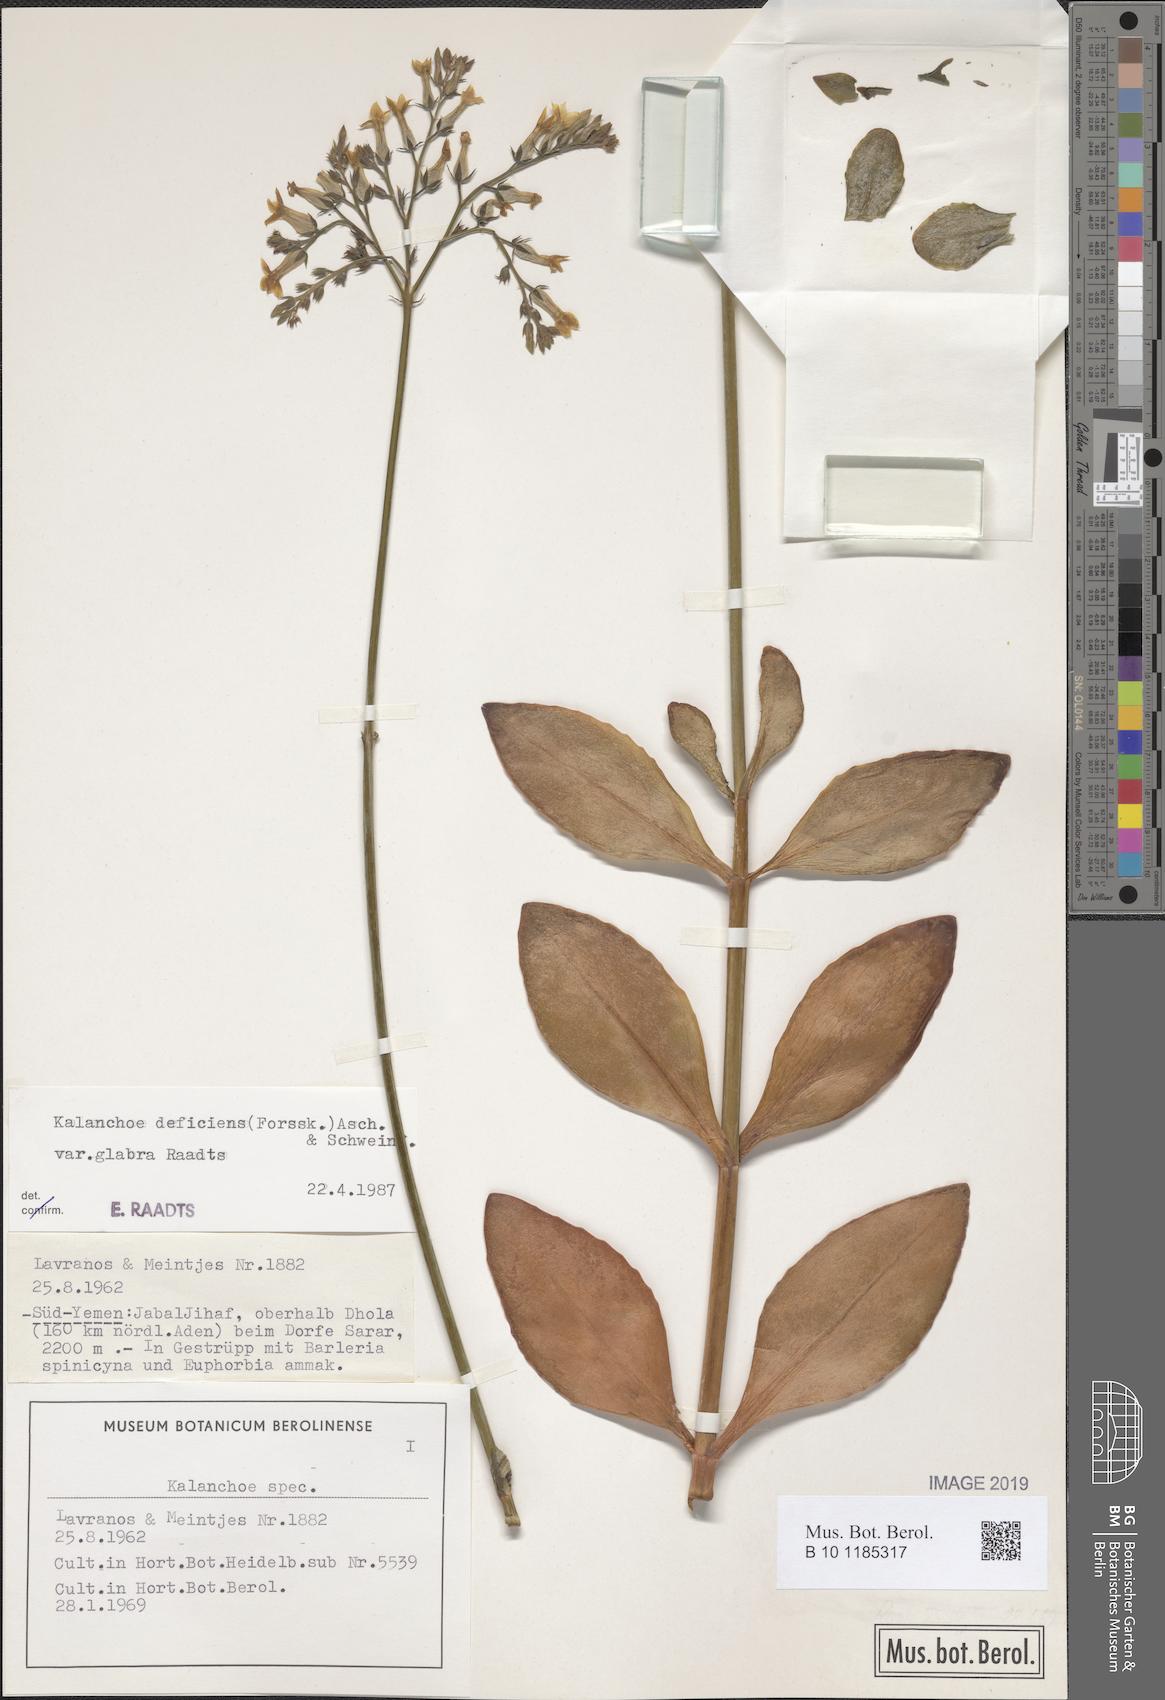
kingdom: Plantae
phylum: Tracheophyta
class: Magnoliopsida
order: Saxifragales
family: Crassulaceae
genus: Kalanchoe
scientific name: Kalanchoe deficiens
